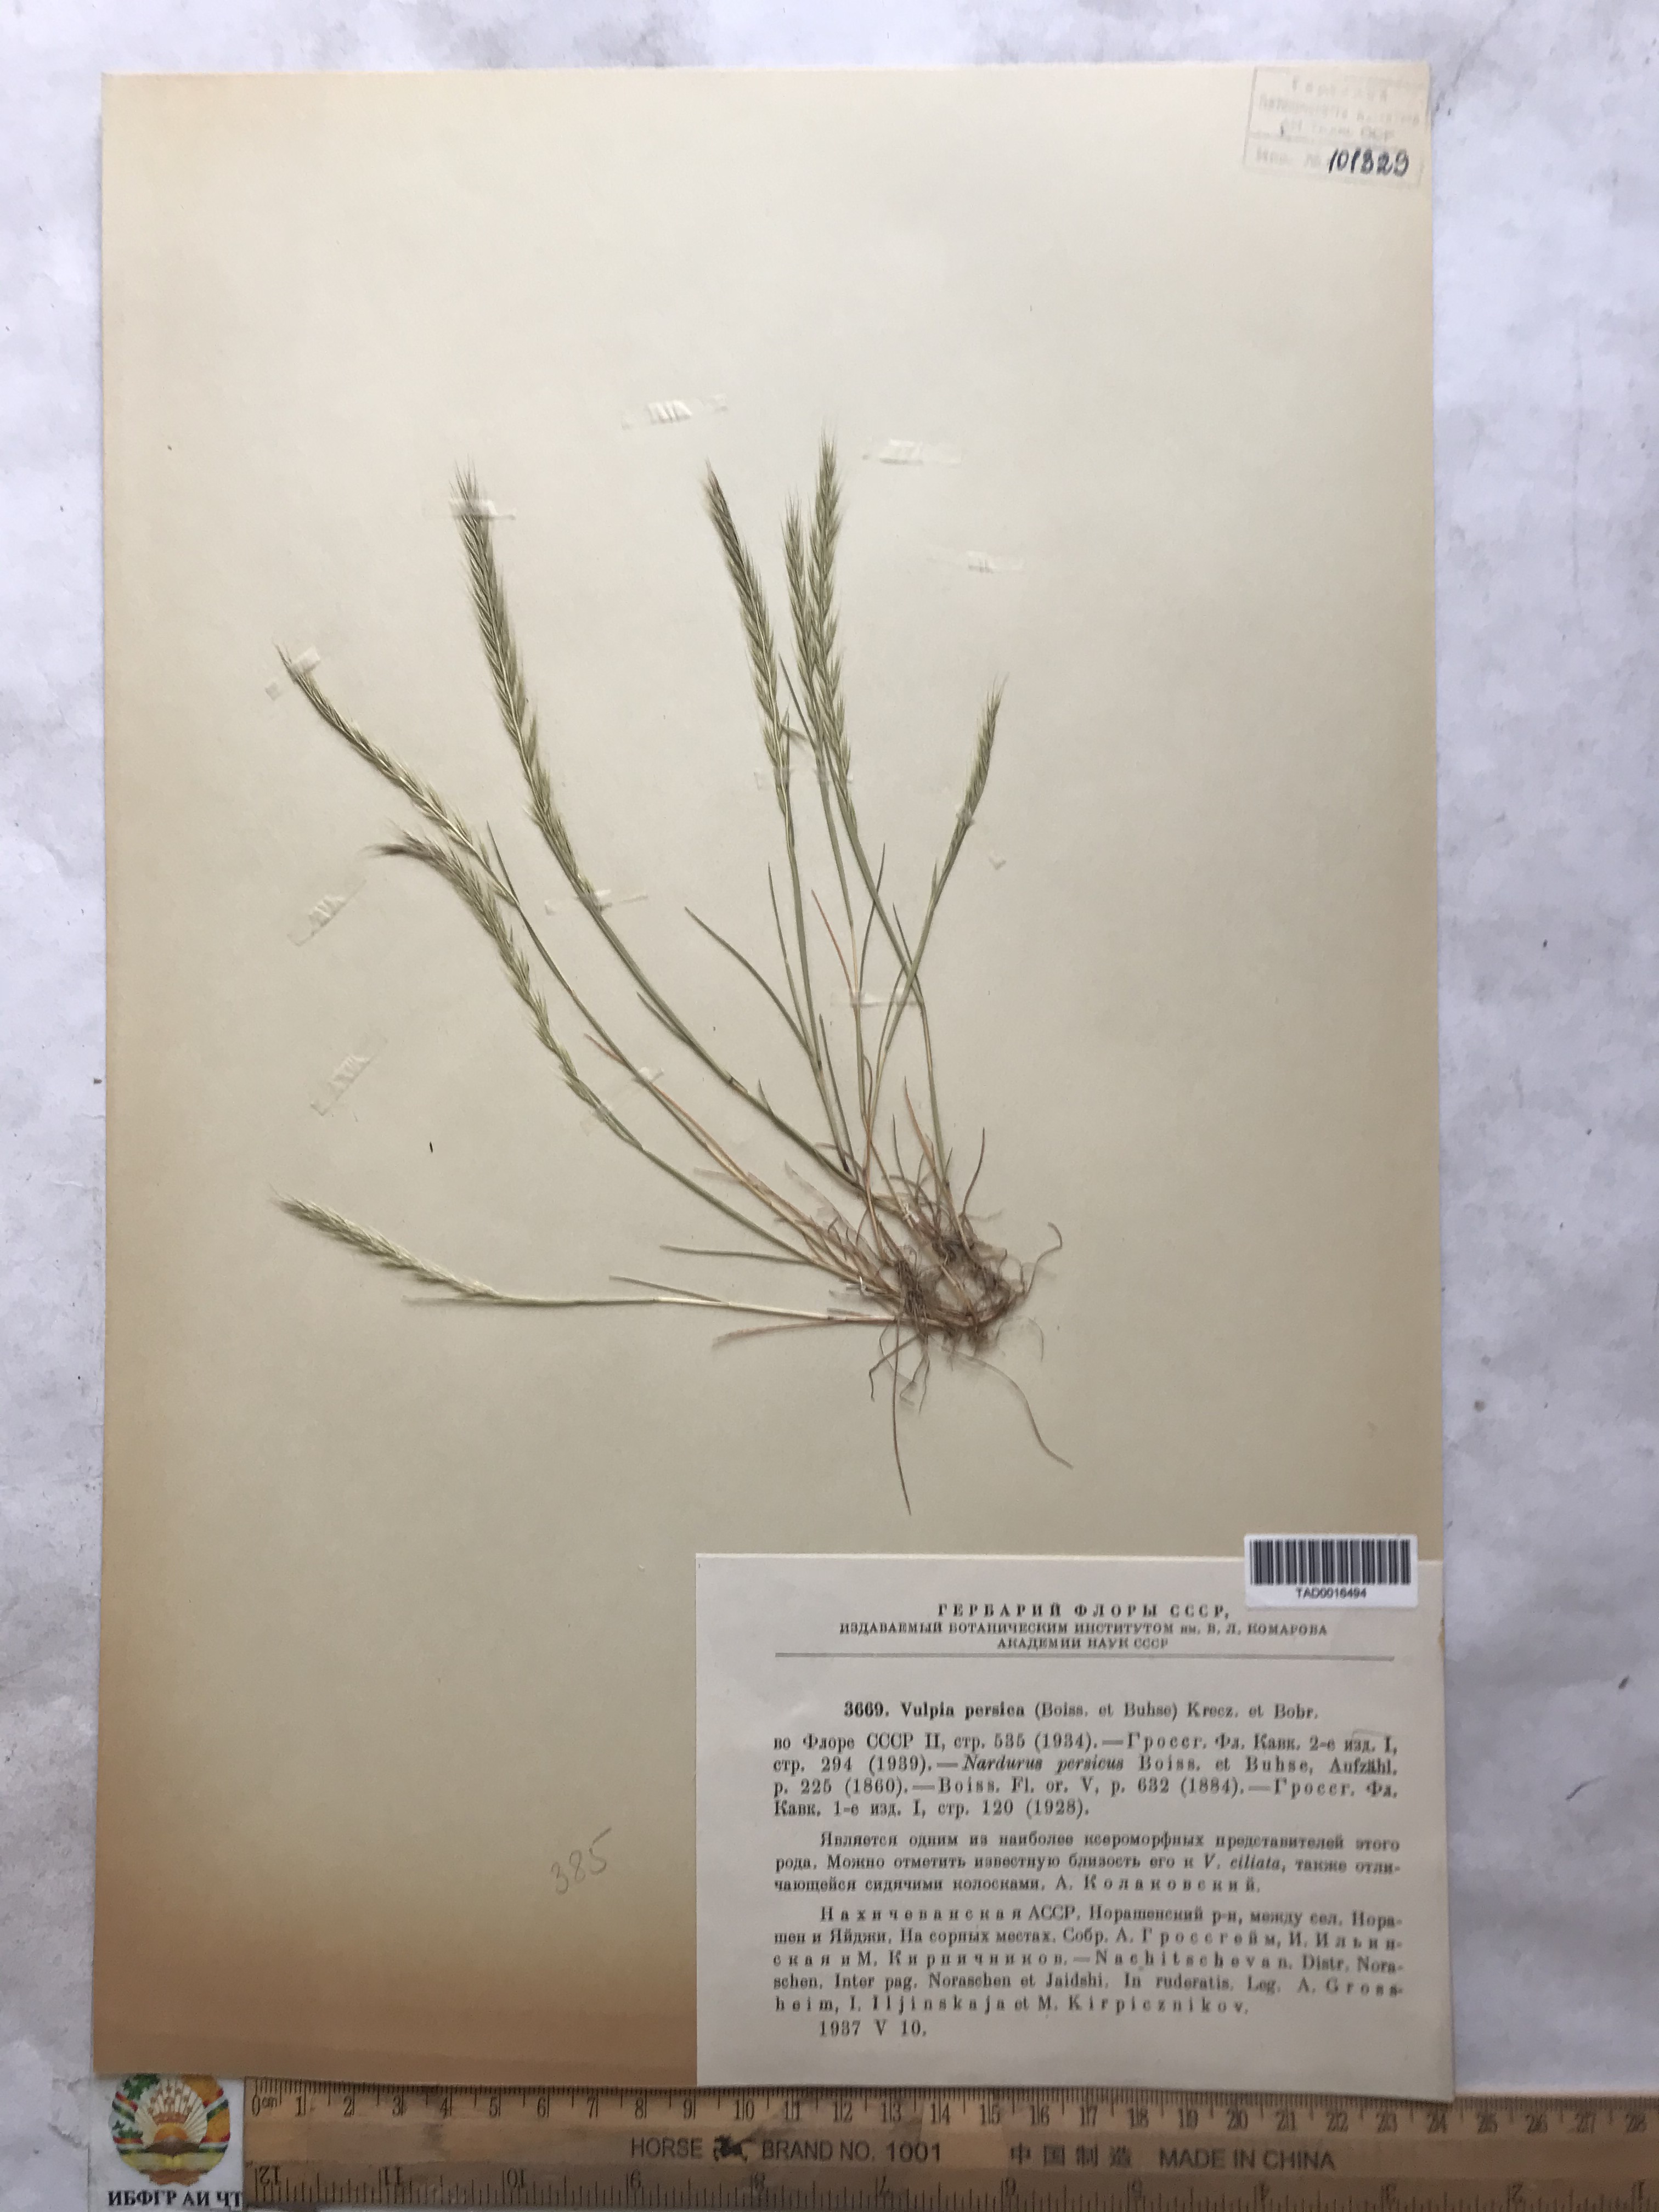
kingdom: Plantae
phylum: Tracheophyta
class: Liliopsida
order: Poales
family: Poaceae
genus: Festuca
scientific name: Festuca Vulpia persica
